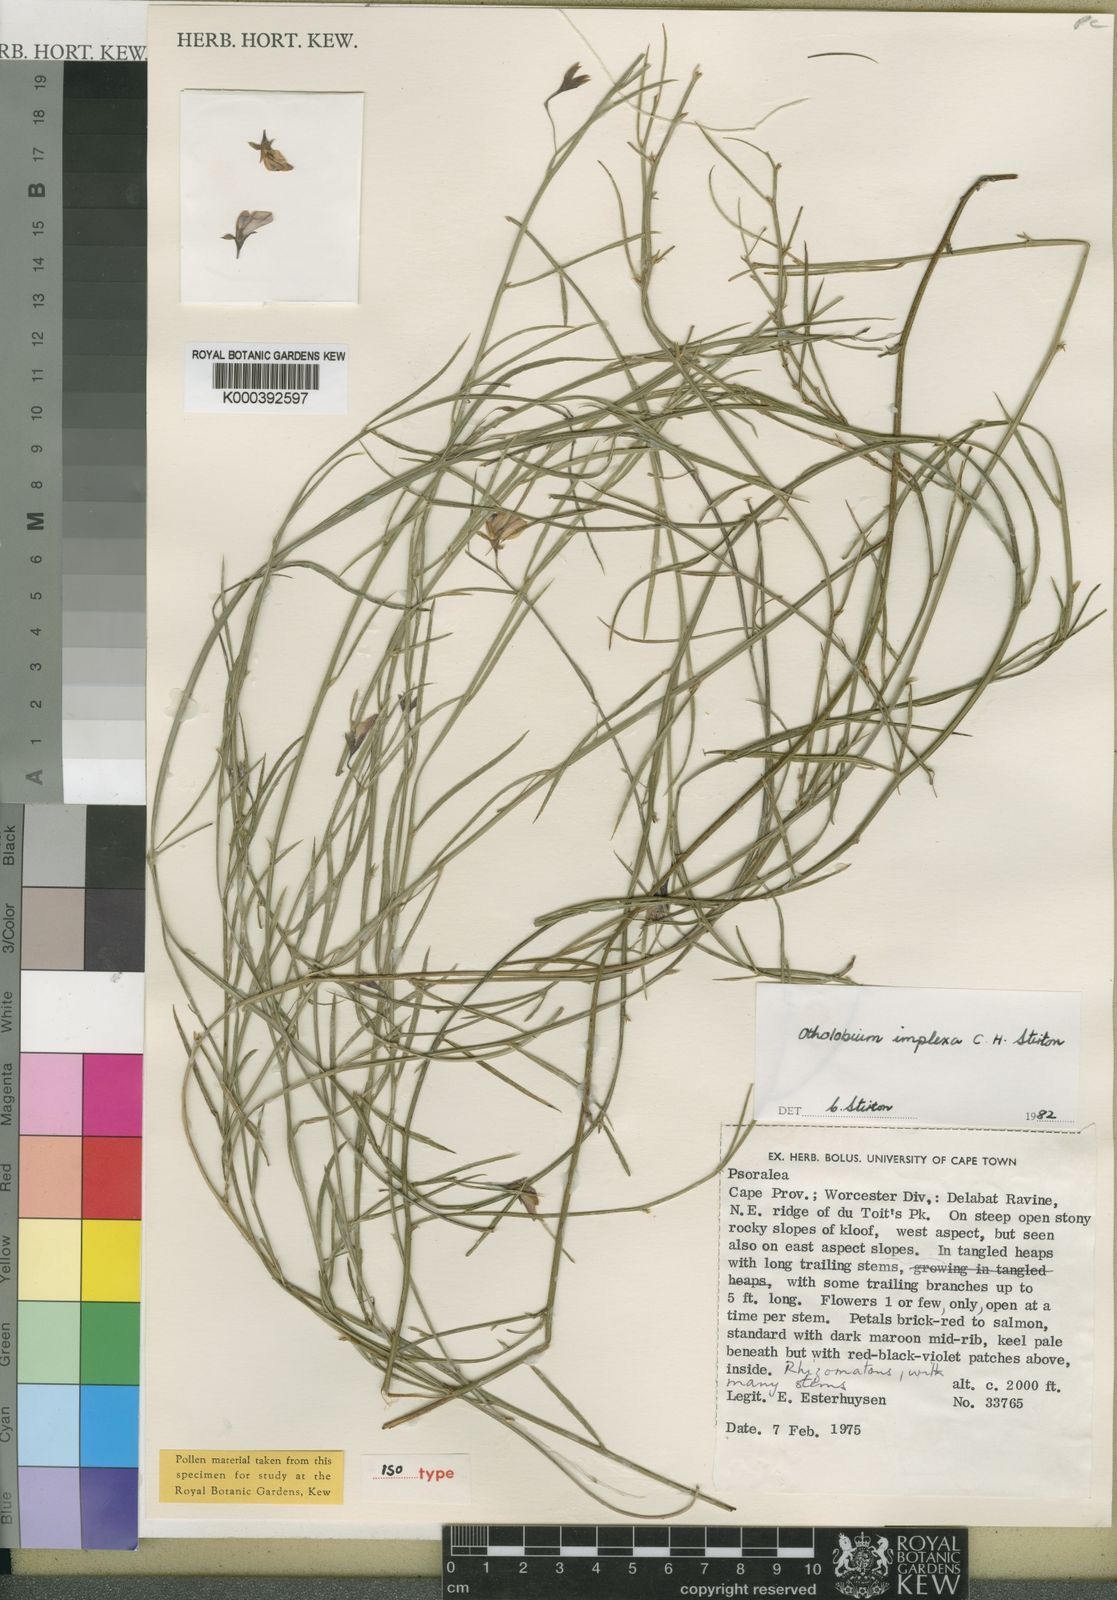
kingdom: Plantae
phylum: Tracheophyta
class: Magnoliopsida
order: Fabales
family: Fabaceae
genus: Otholobium
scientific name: Otholobium
